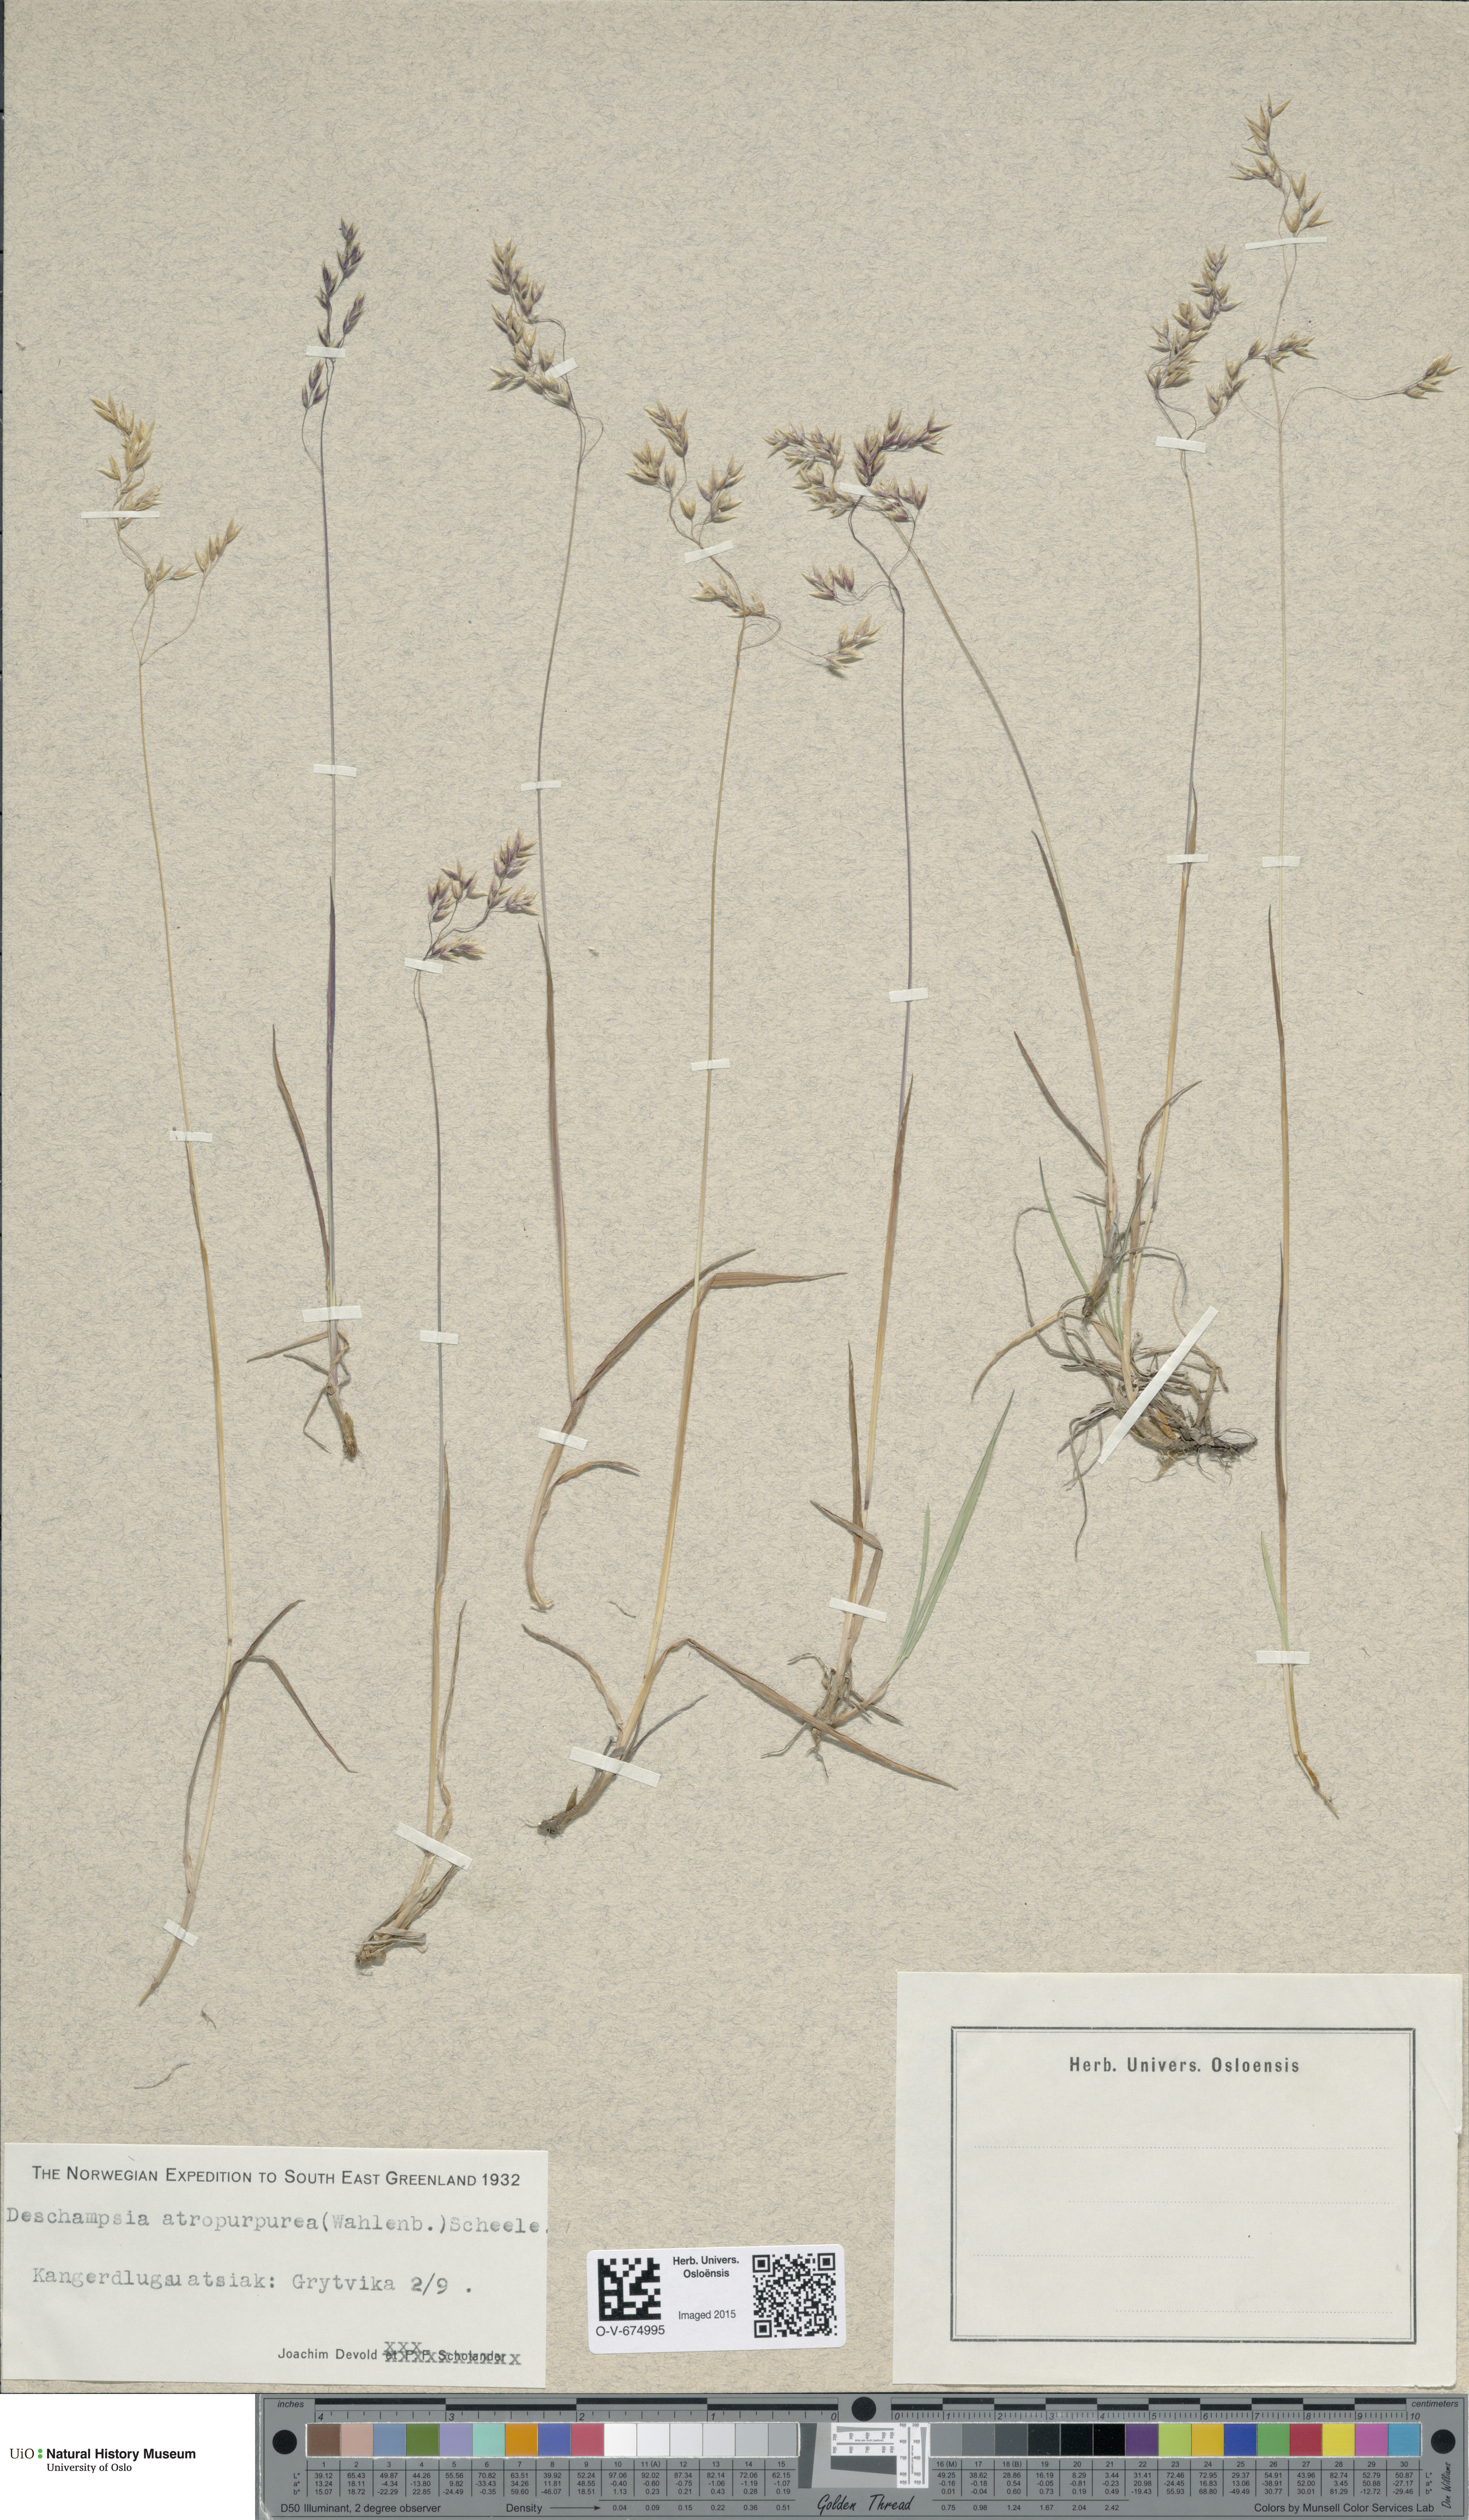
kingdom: Plantae
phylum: Tracheophyta
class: Liliopsida
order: Poales
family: Poaceae
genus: Vahlodea
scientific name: Vahlodea atropurpurea
